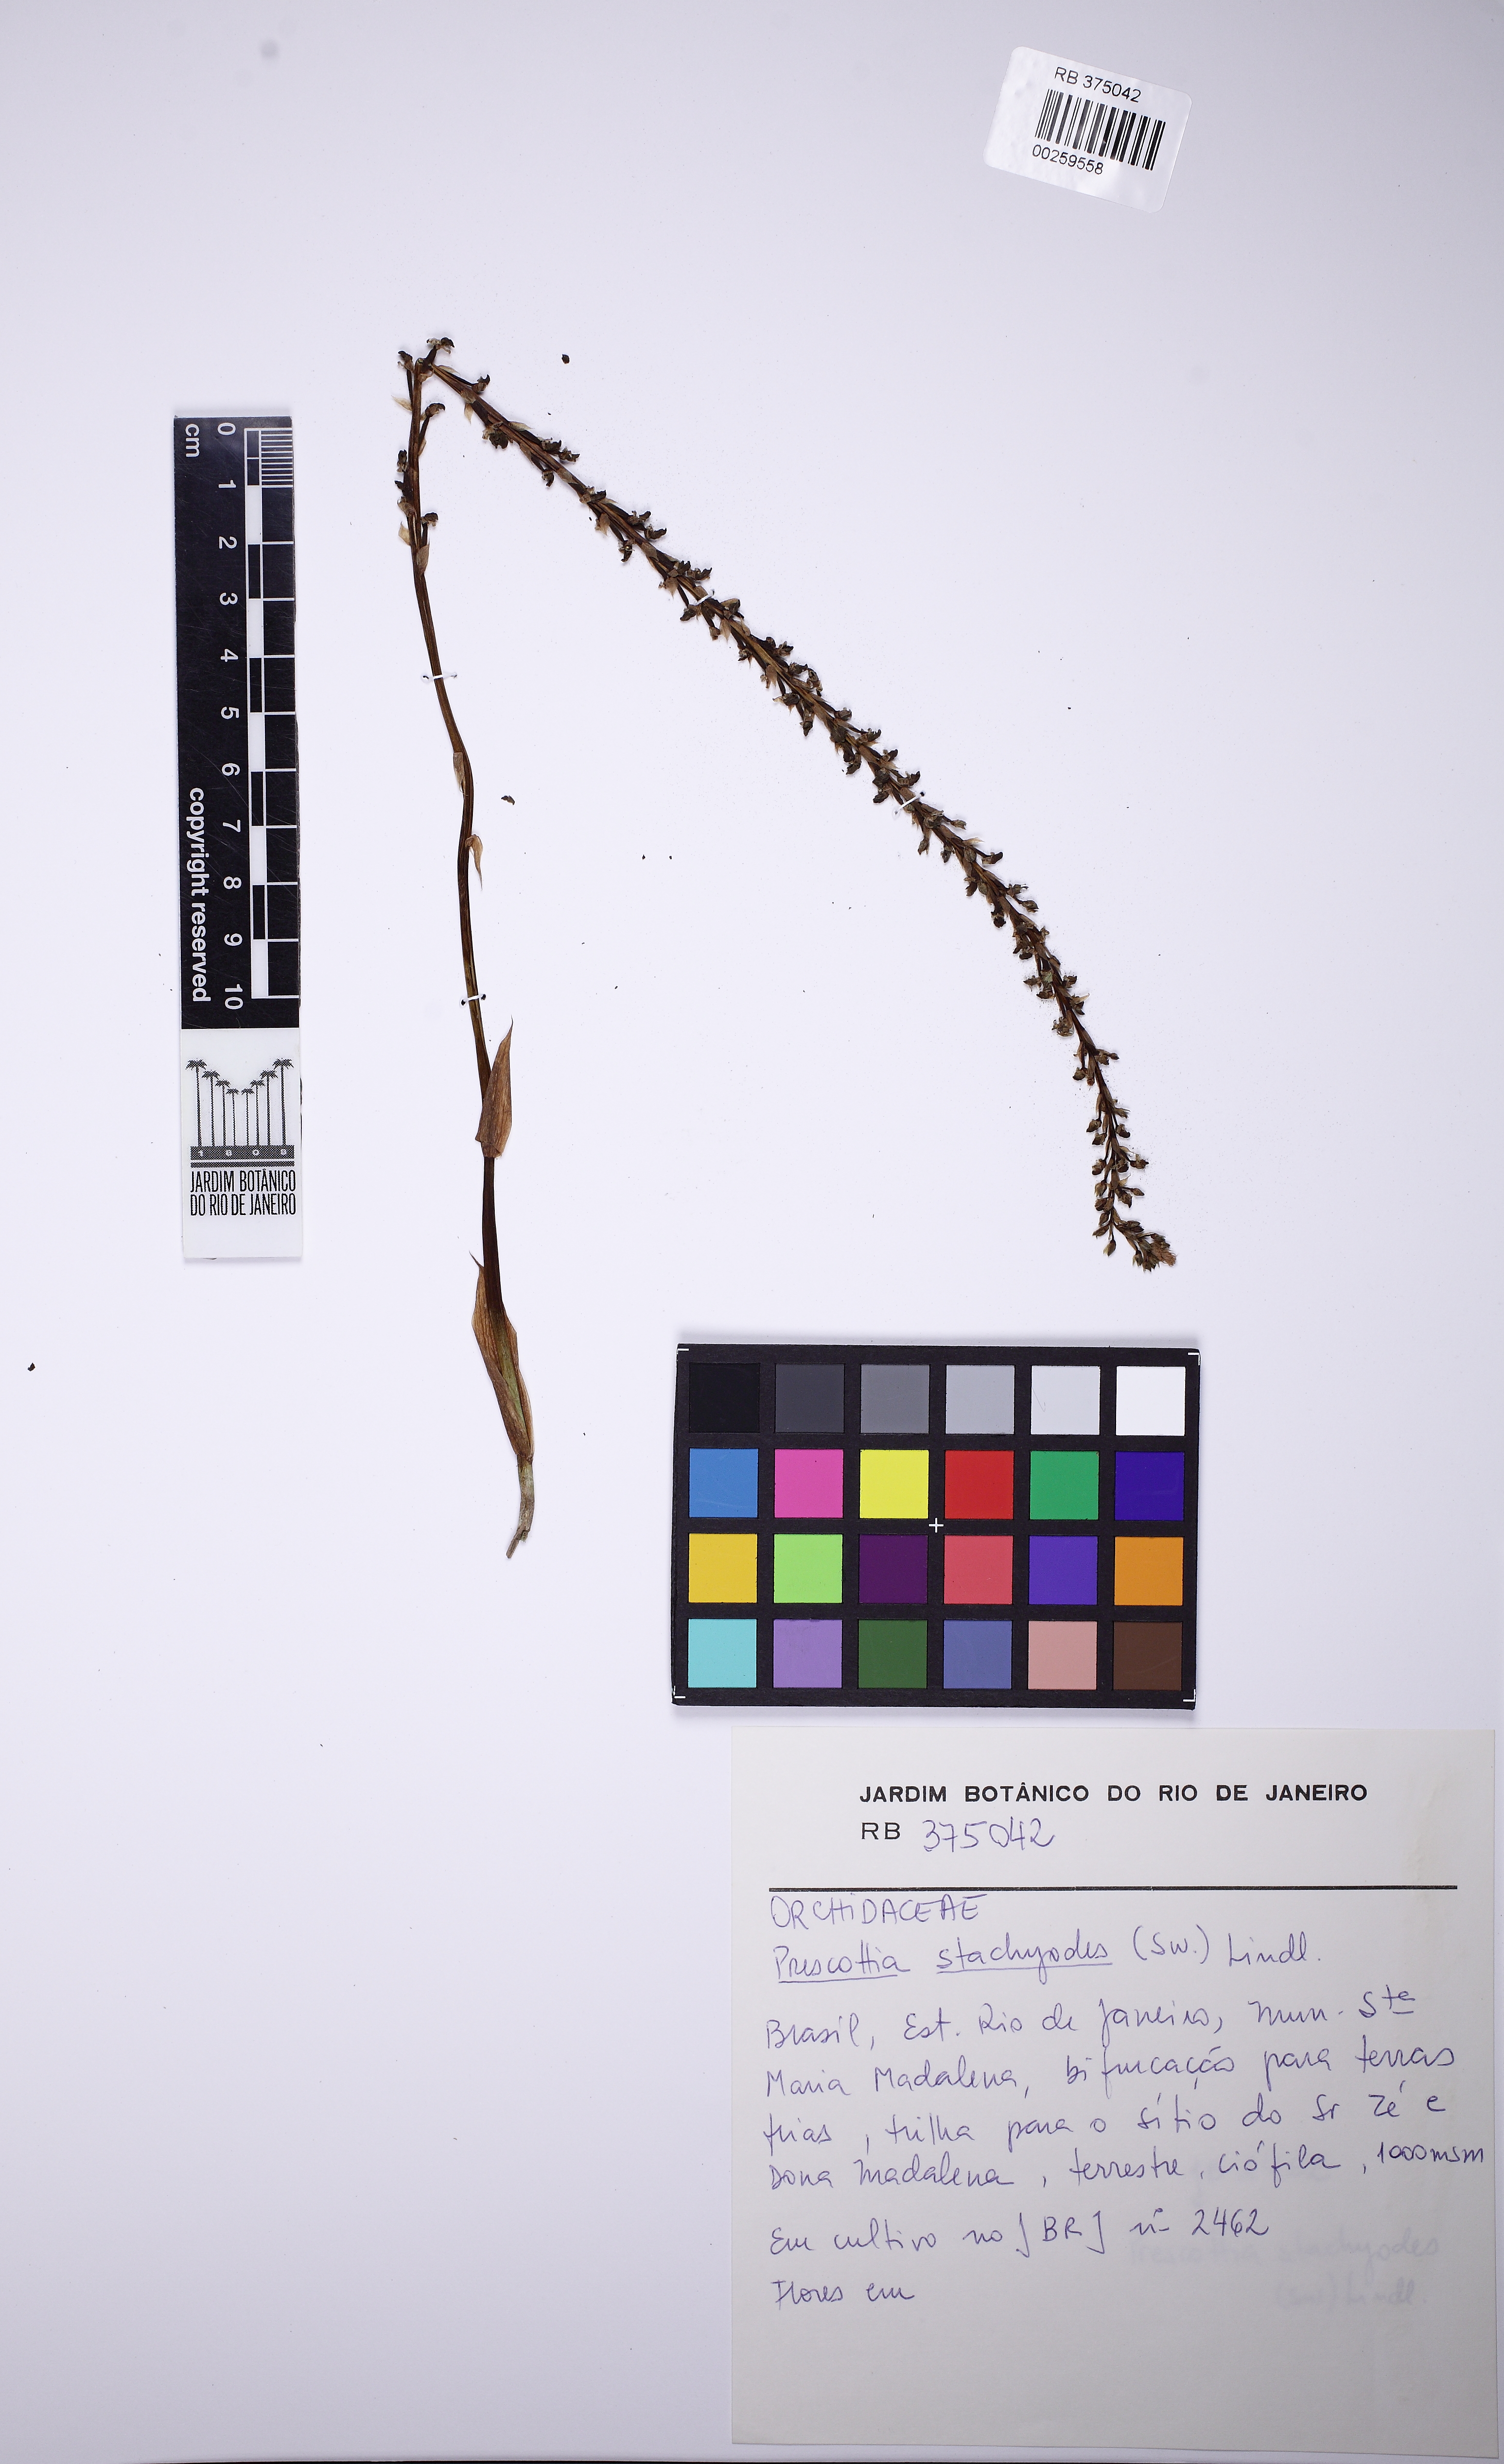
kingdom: Plantae
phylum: Tracheophyta
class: Liliopsida
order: Asparagales
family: Orchidaceae
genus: Prescottia
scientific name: Prescottia stachyodes
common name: Mountain prescott orchid
